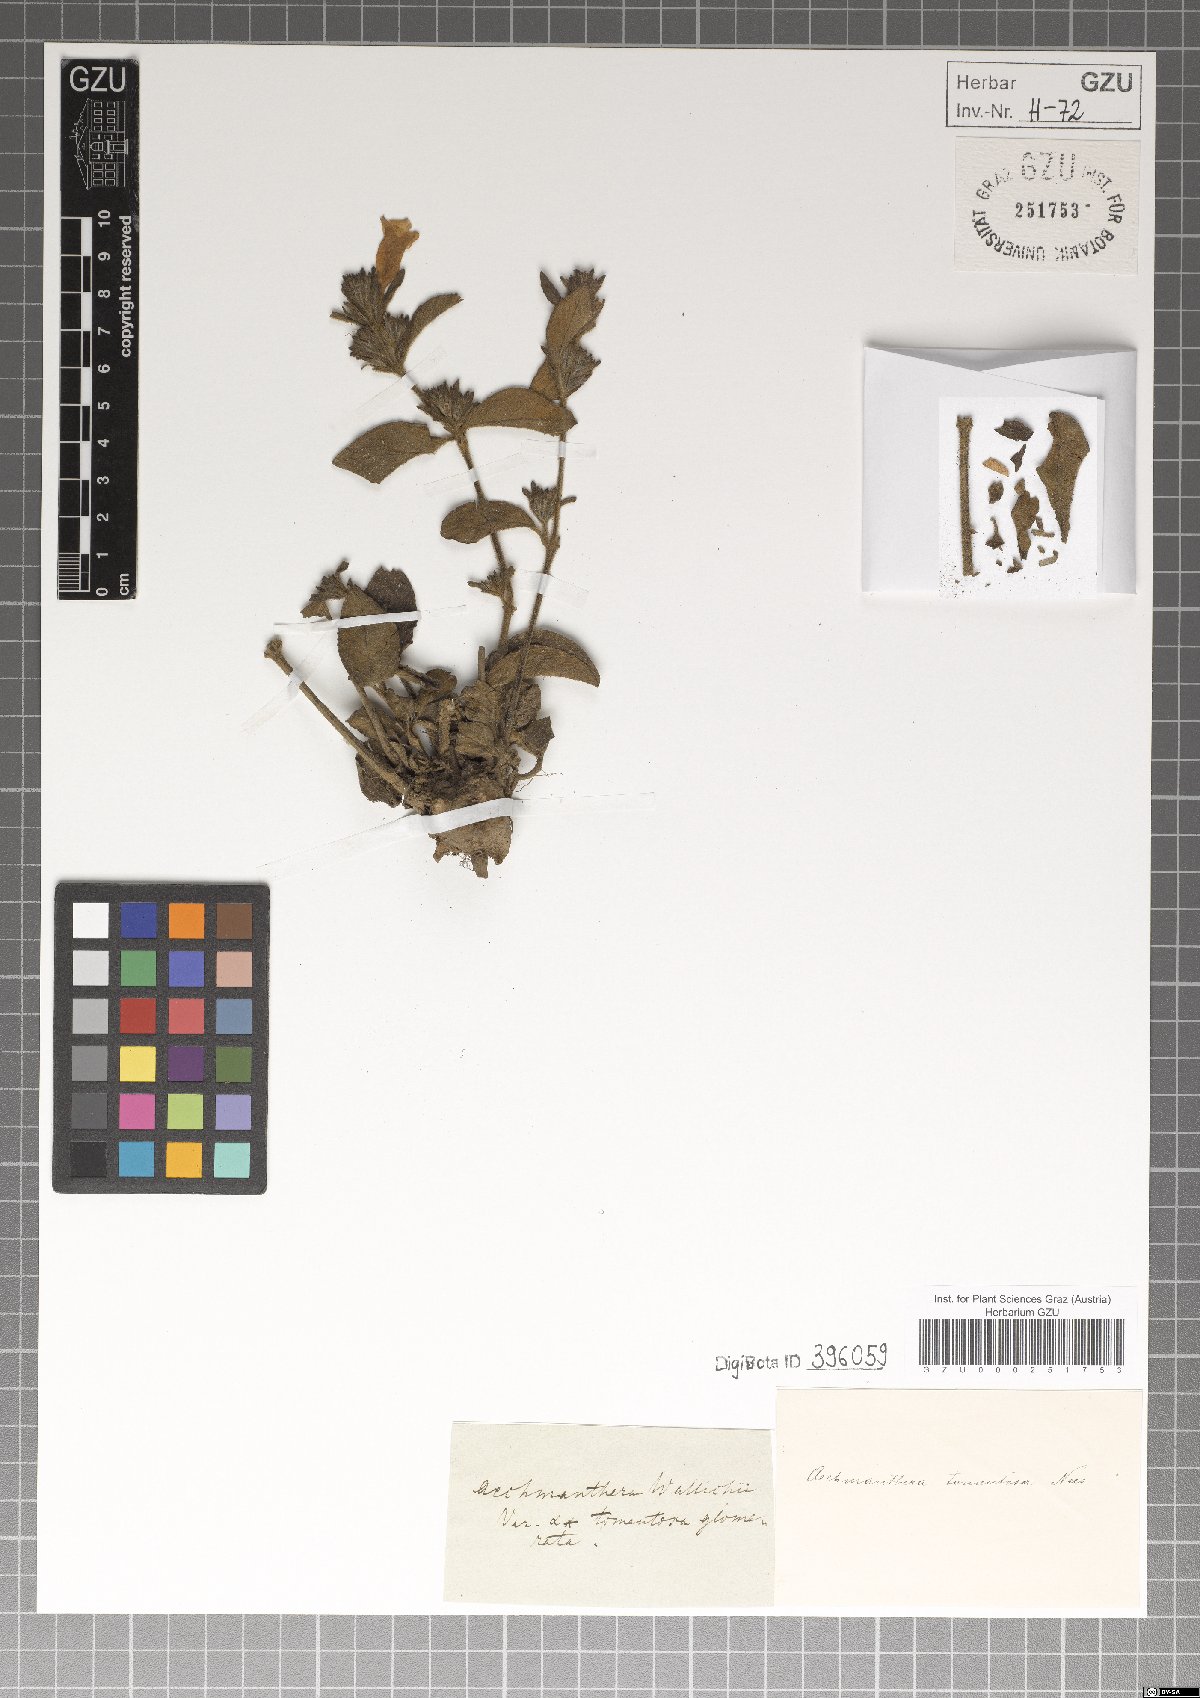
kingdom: Plantae
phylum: Tracheophyta
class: Magnoliopsida
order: Lamiales
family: Acanthaceae
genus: Strobilanthes
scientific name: Strobilanthes tomentosa
